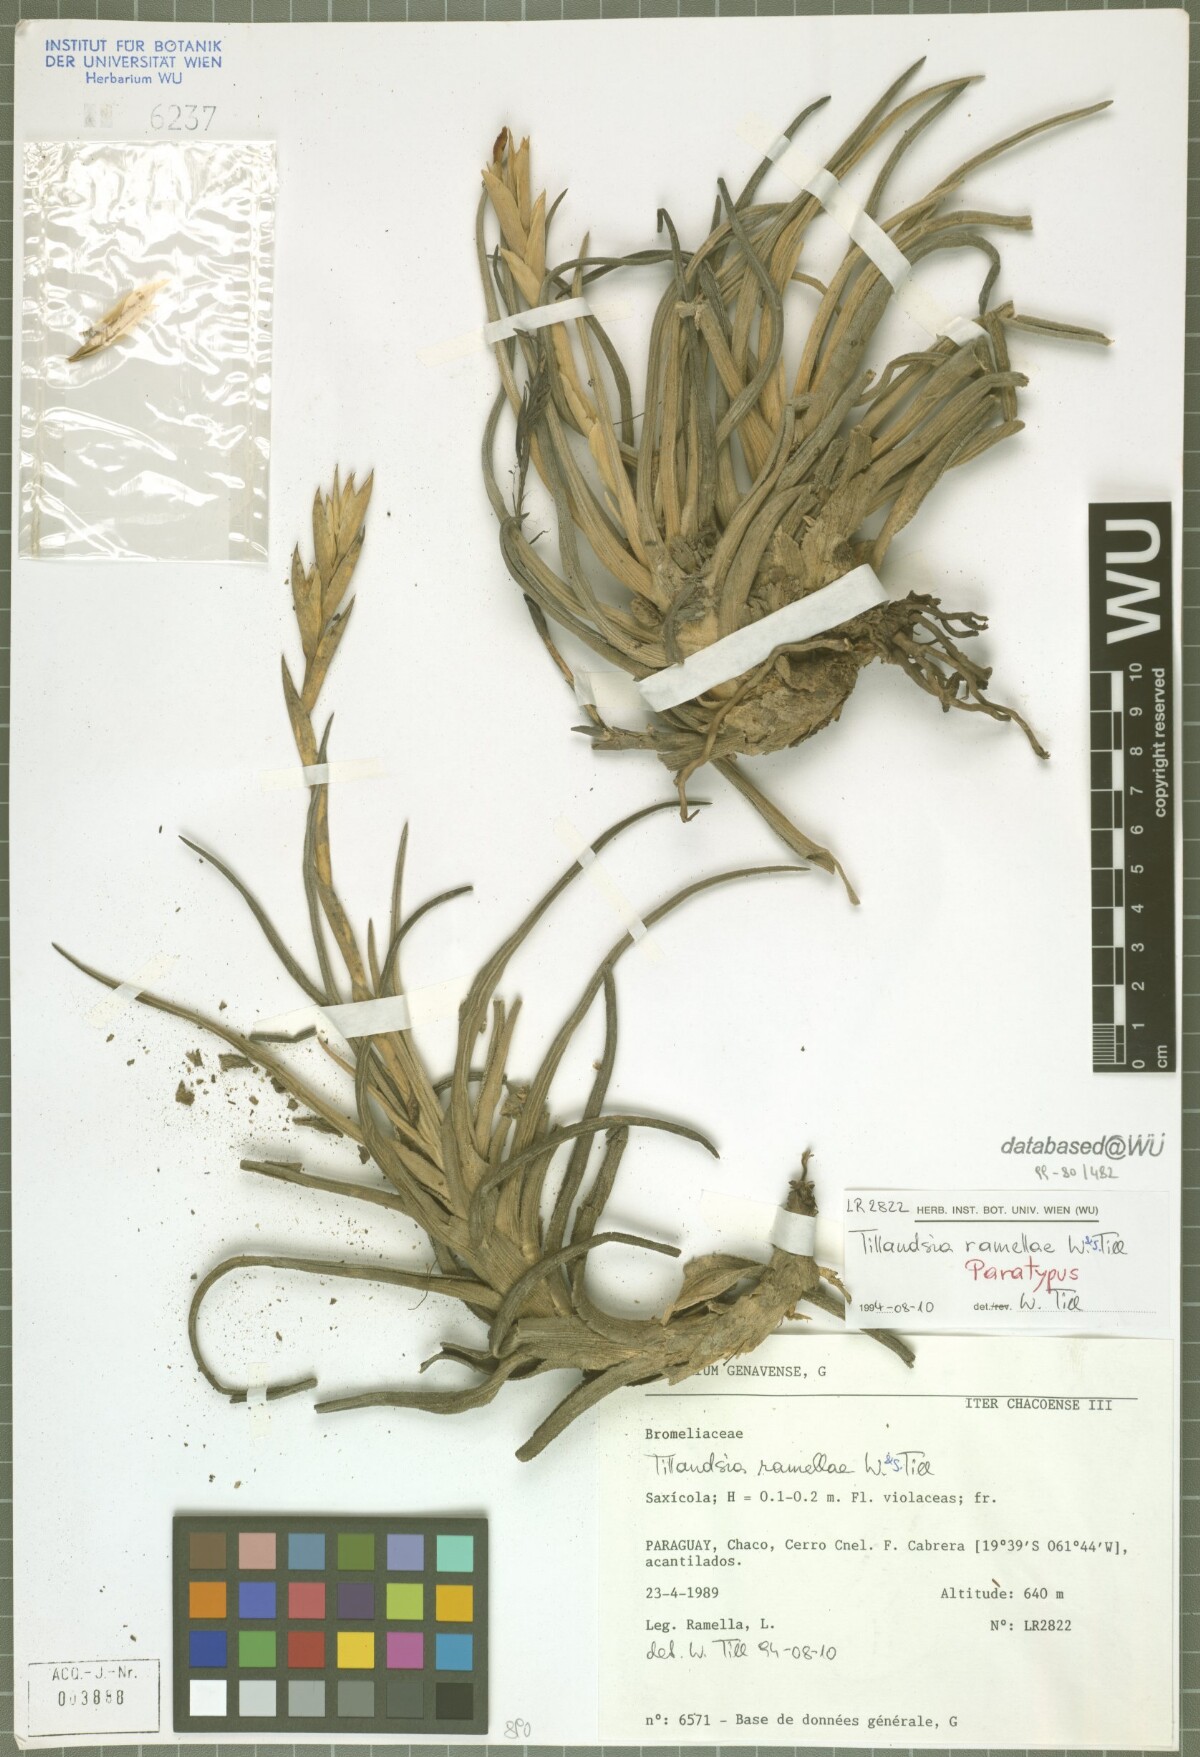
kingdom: Plantae
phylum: Tracheophyta
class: Liliopsida
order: Poales
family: Bromeliaceae
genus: Tillandsia
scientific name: Tillandsia ramellae
